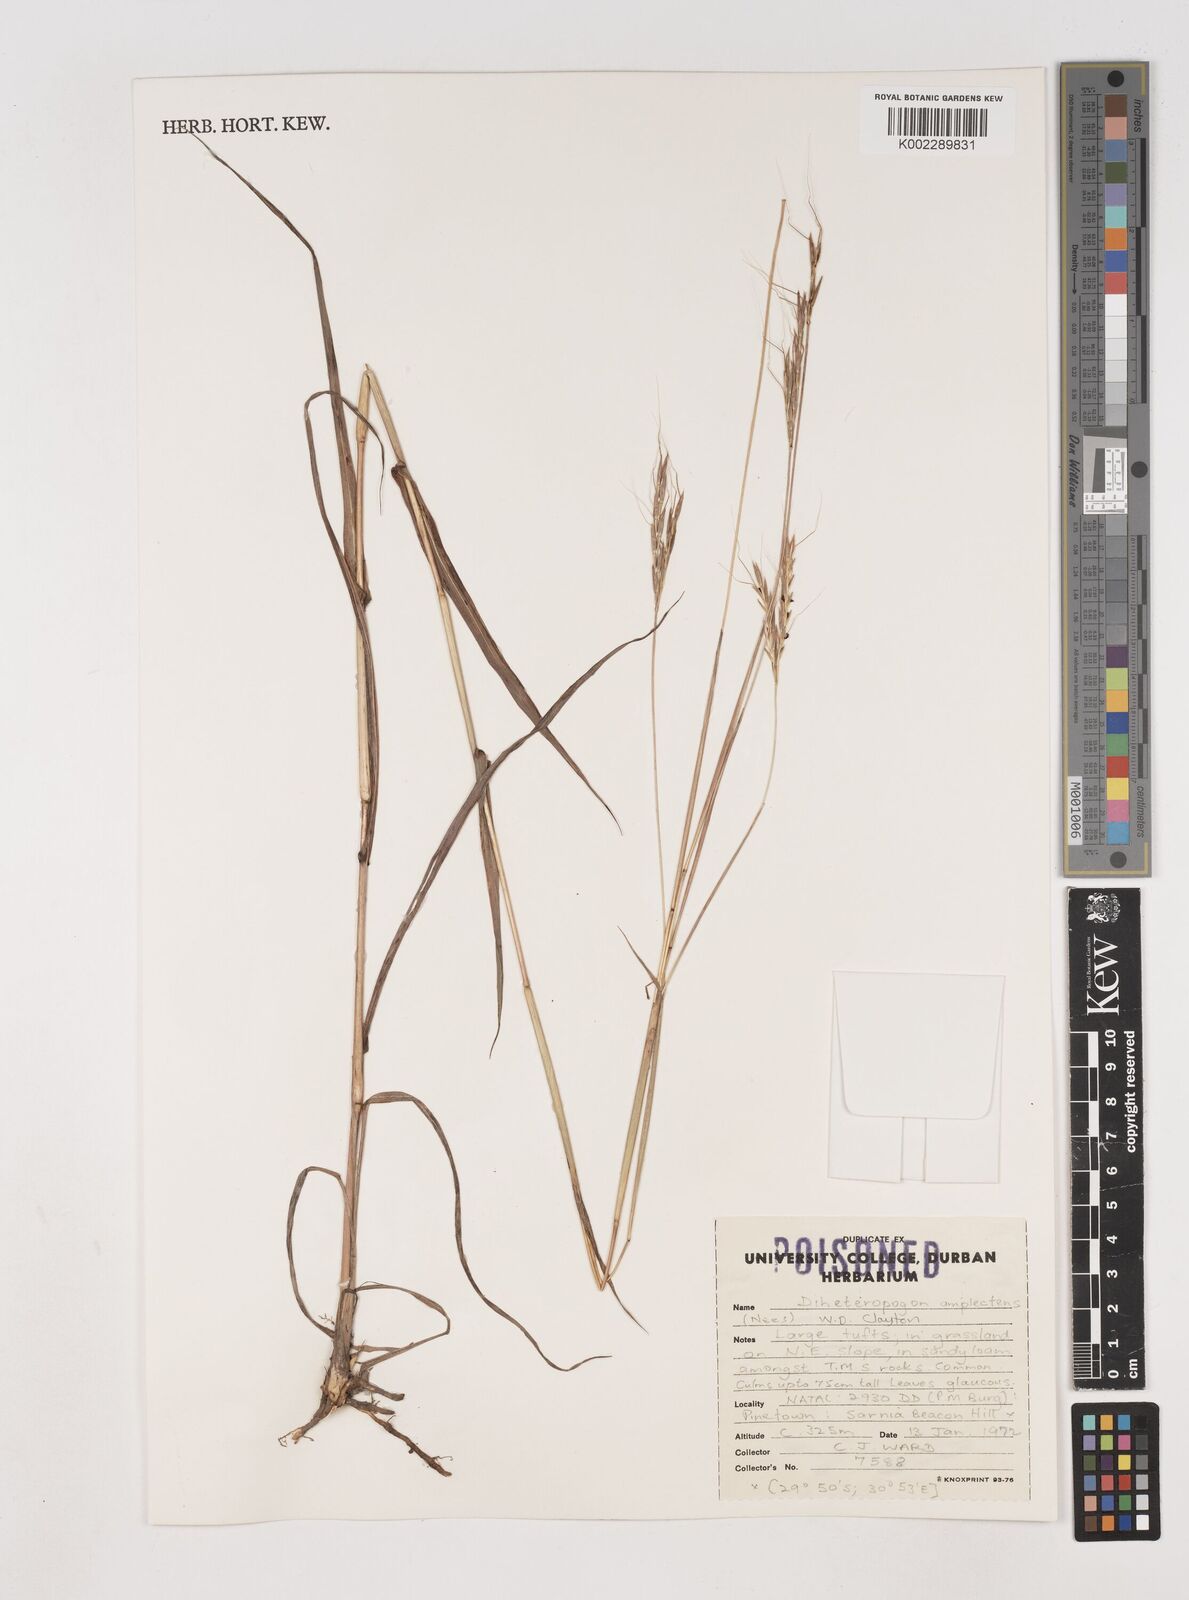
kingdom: Plantae
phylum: Tracheophyta
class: Liliopsida
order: Poales
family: Poaceae
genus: Diheteropogon
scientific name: Diheteropogon amplectens
